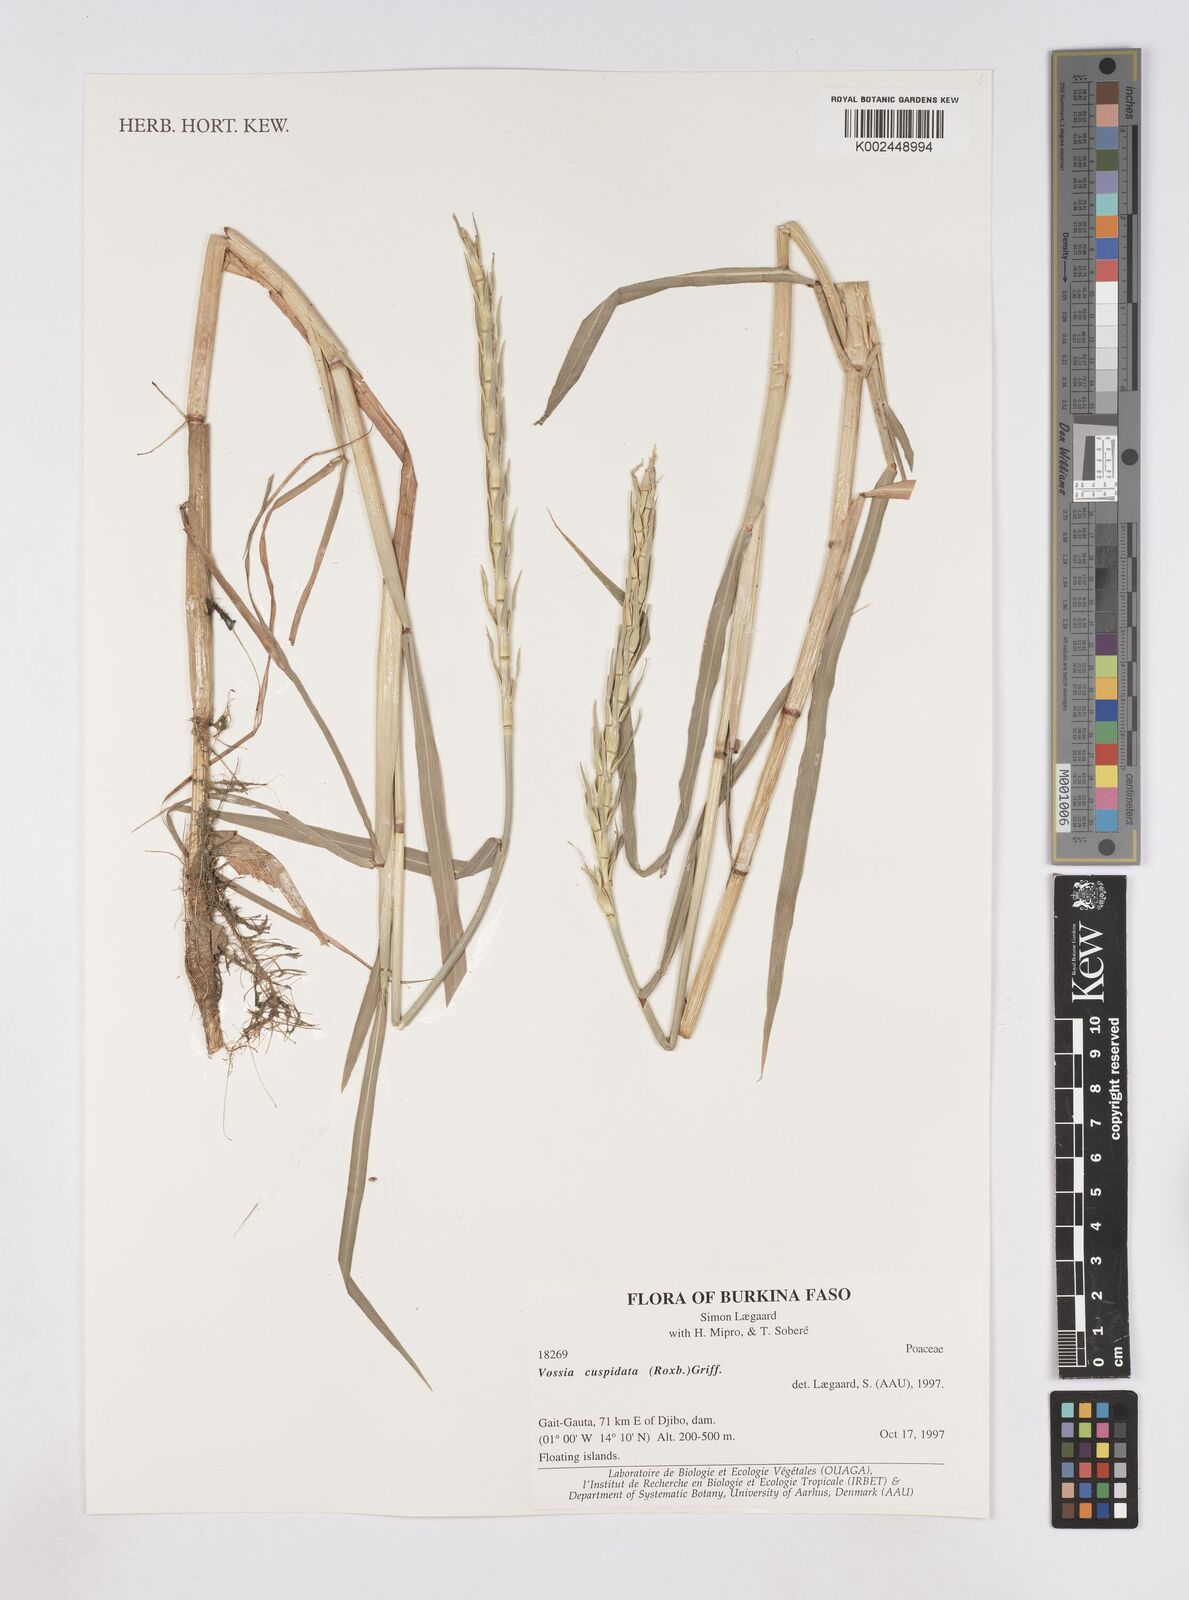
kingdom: Plantae
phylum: Tracheophyta
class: Liliopsida
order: Poales
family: Poaceae
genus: Vossia
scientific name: Vossia cuspidata
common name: Hippo grass
